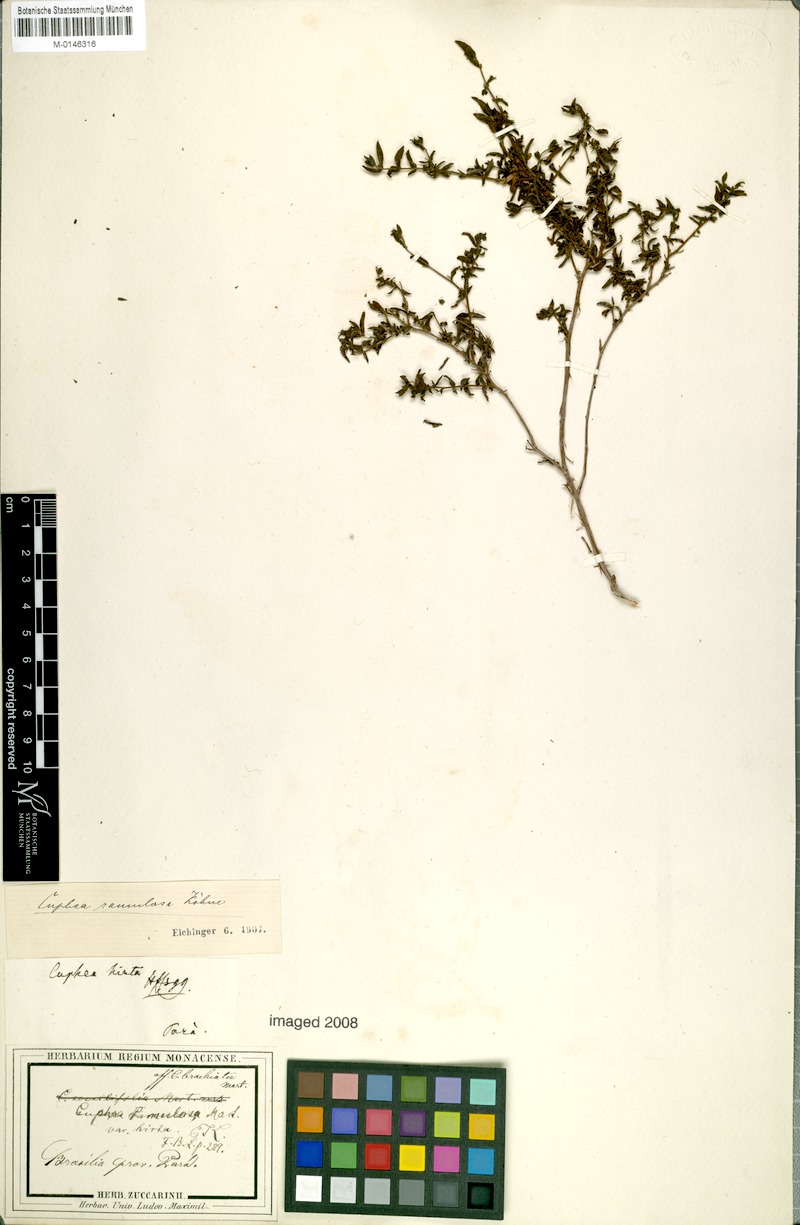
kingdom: Plantae
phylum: Tracheophyta
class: Magnoliopsida
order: Myrtales
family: Lythraceae
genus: Cuphea
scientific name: Cuphea antisyphilitica
